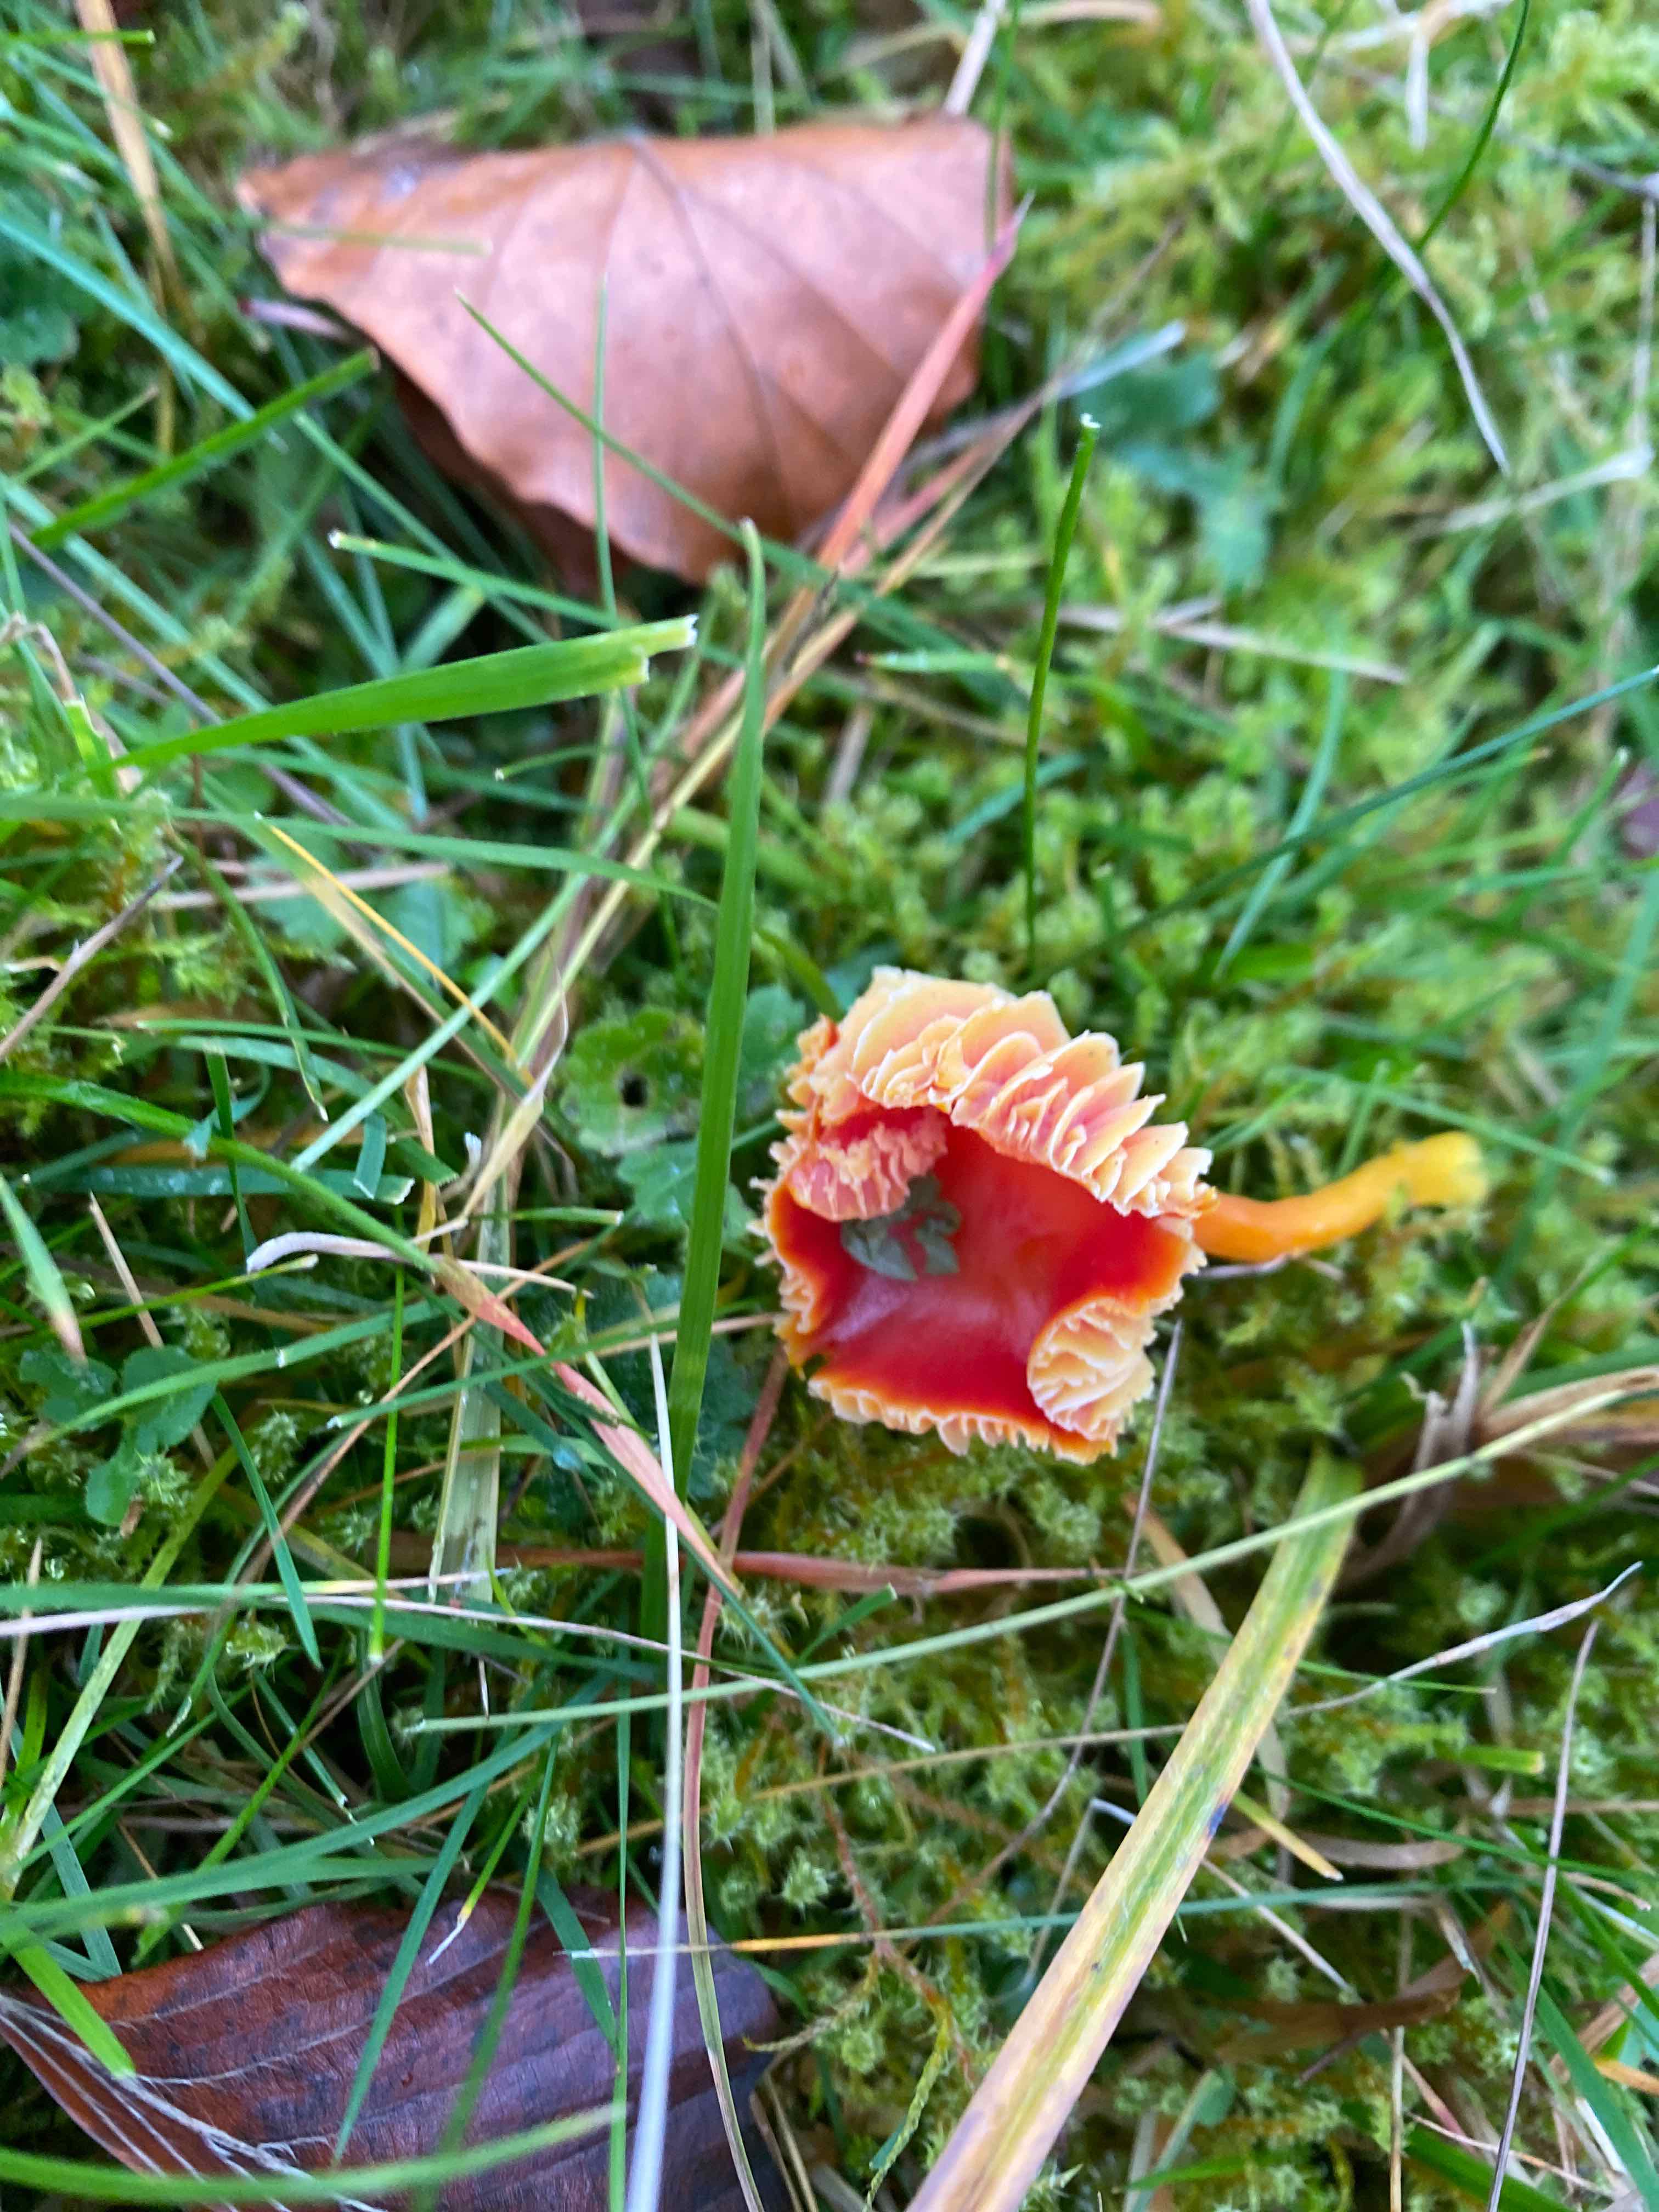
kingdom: Fungi
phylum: Basidiomycota
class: Agaricomycetes
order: Agaricales
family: Hygrophoraceae
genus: Hygrocybe
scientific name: Hygrocybe coccinea
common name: cinnober-vokshat
